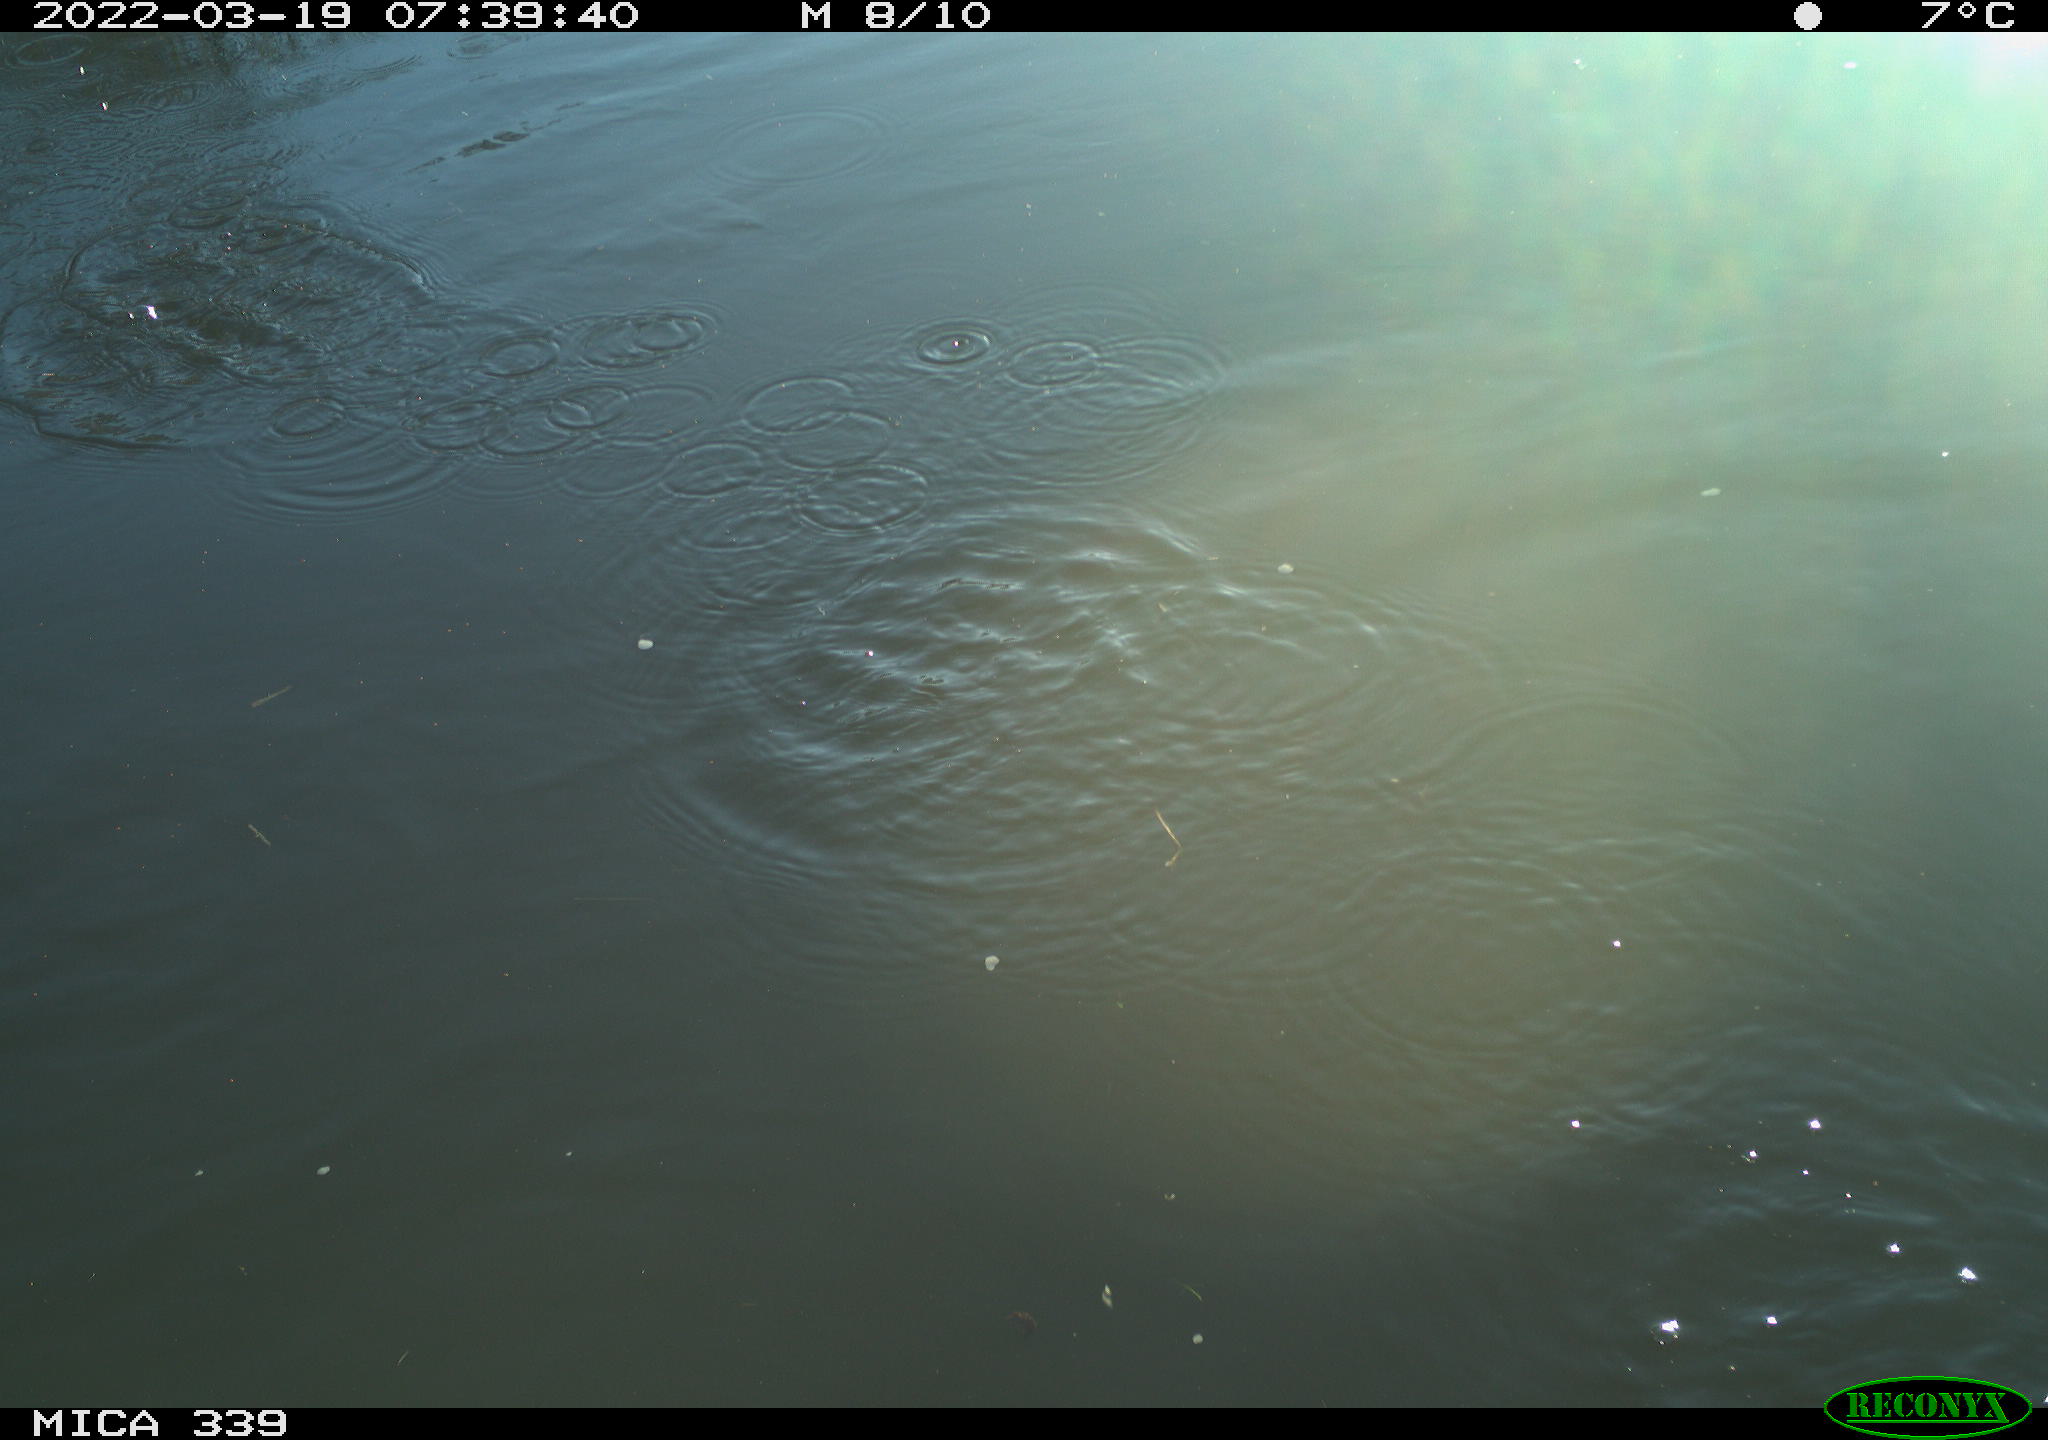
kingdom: Animalia
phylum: Chordata
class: Aves
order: Pelecaniformes
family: Ardeidae
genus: Ardea
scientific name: Ardea cinerea
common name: Grey heron
